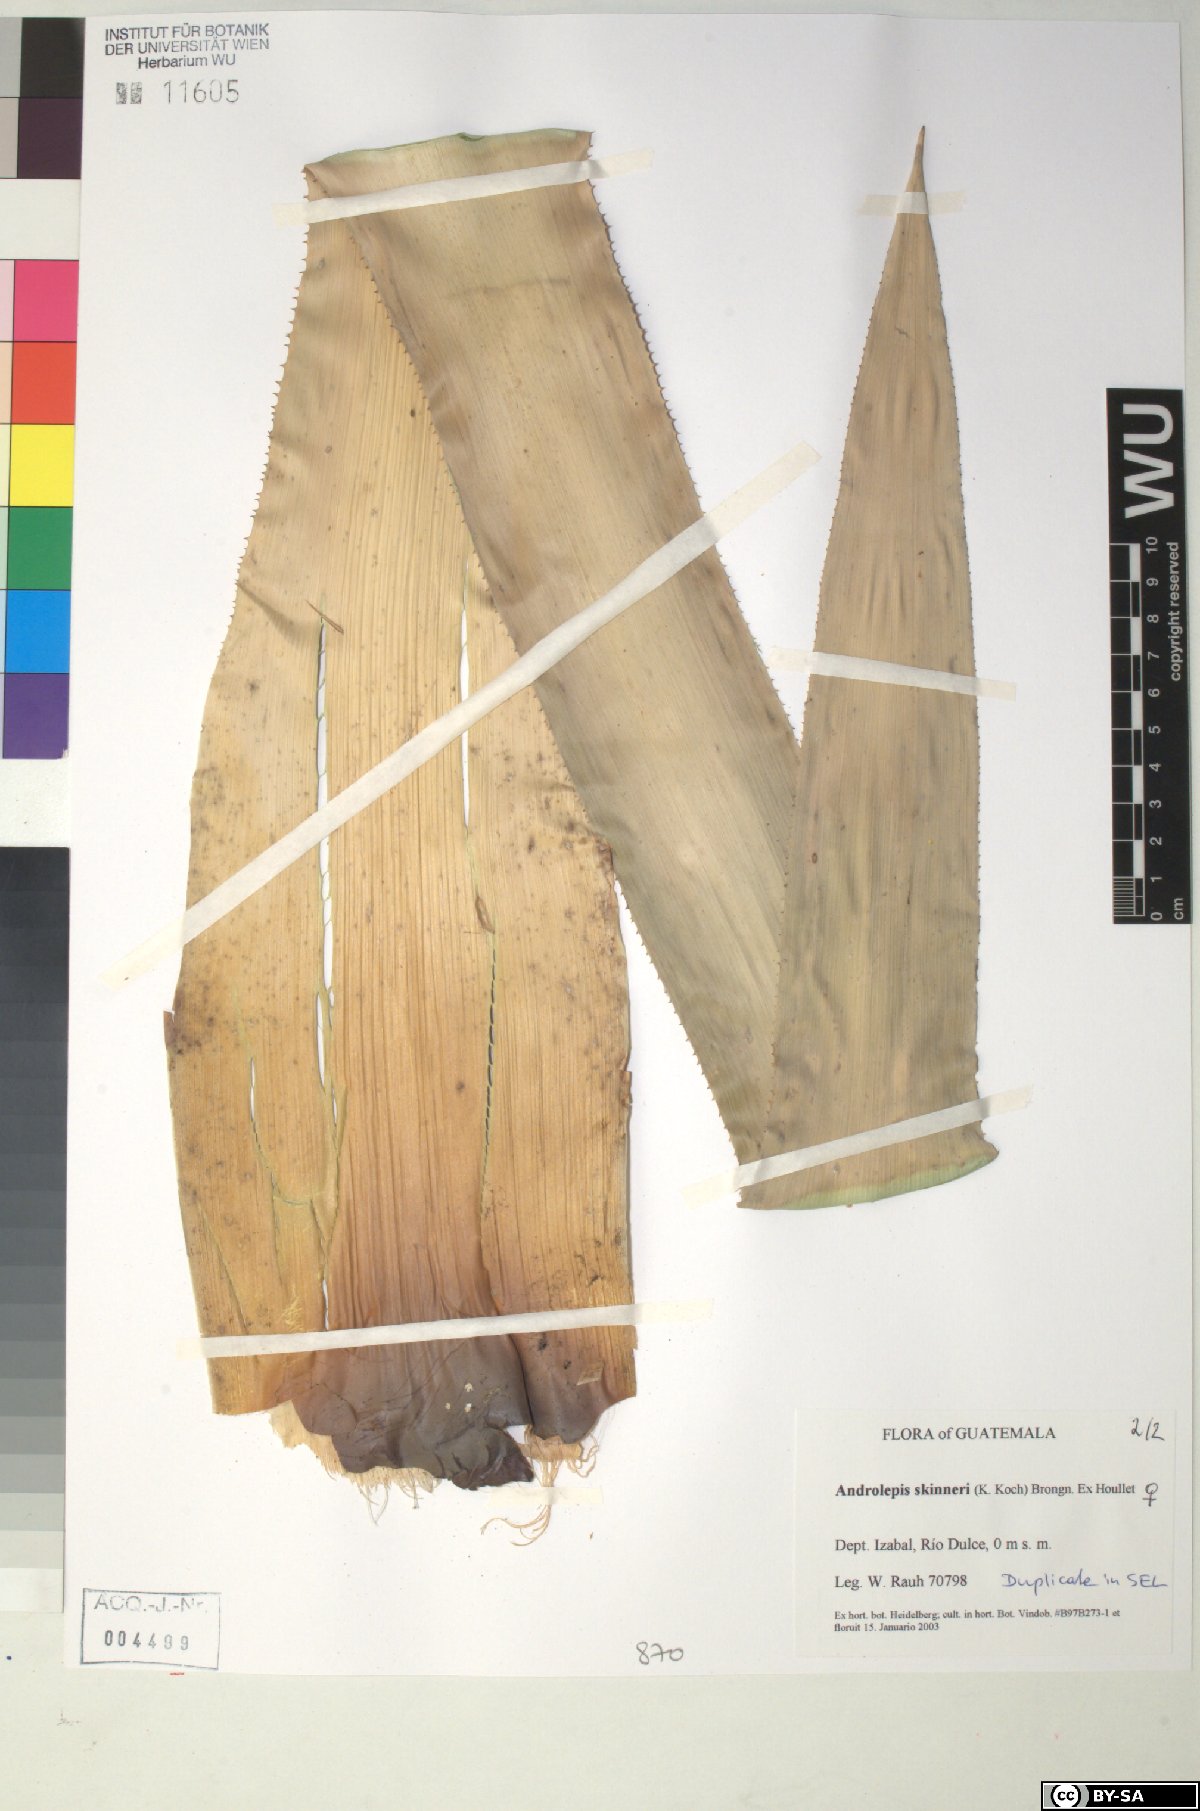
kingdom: Plantae
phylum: Tracheophyta
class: Liliopsida
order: Poales
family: Bromeliaceae
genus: Androlepis
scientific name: Androlepis skinneri
